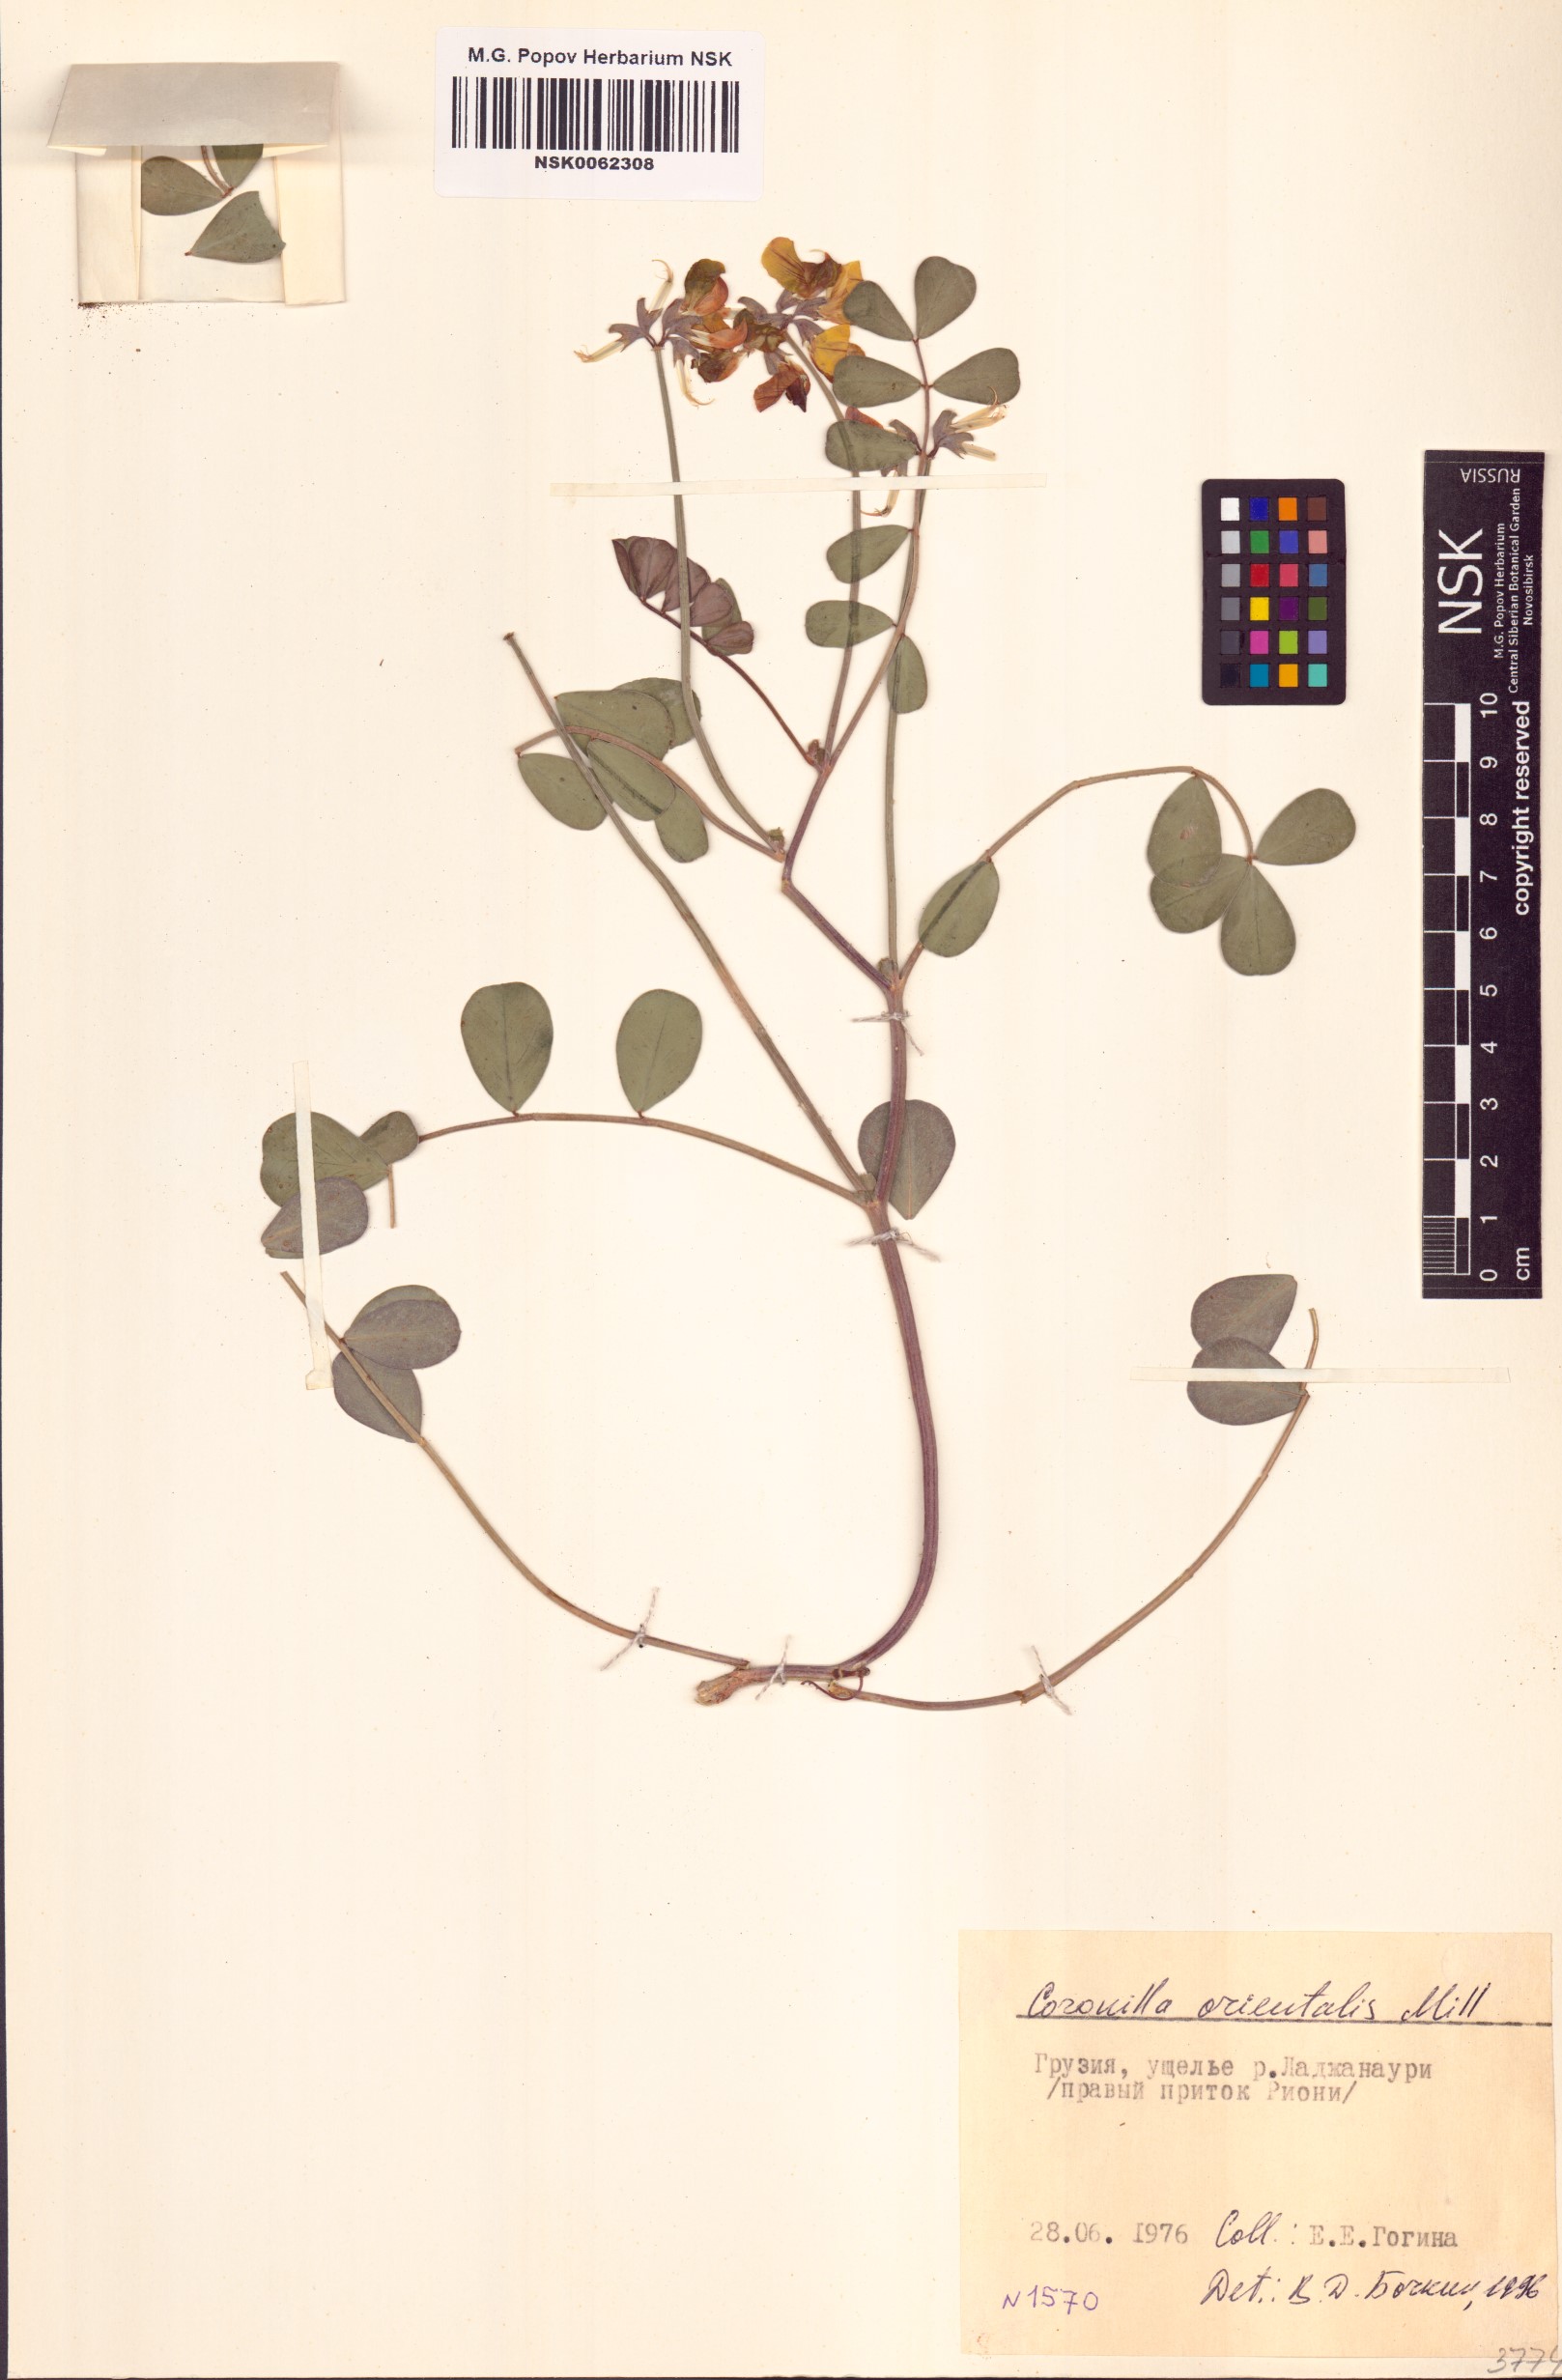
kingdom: Plantae
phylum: Tracheophyta
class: Magnoliopsida
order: Fabales
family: Fabaceae
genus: Coronilla
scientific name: Coronilla orientalis
